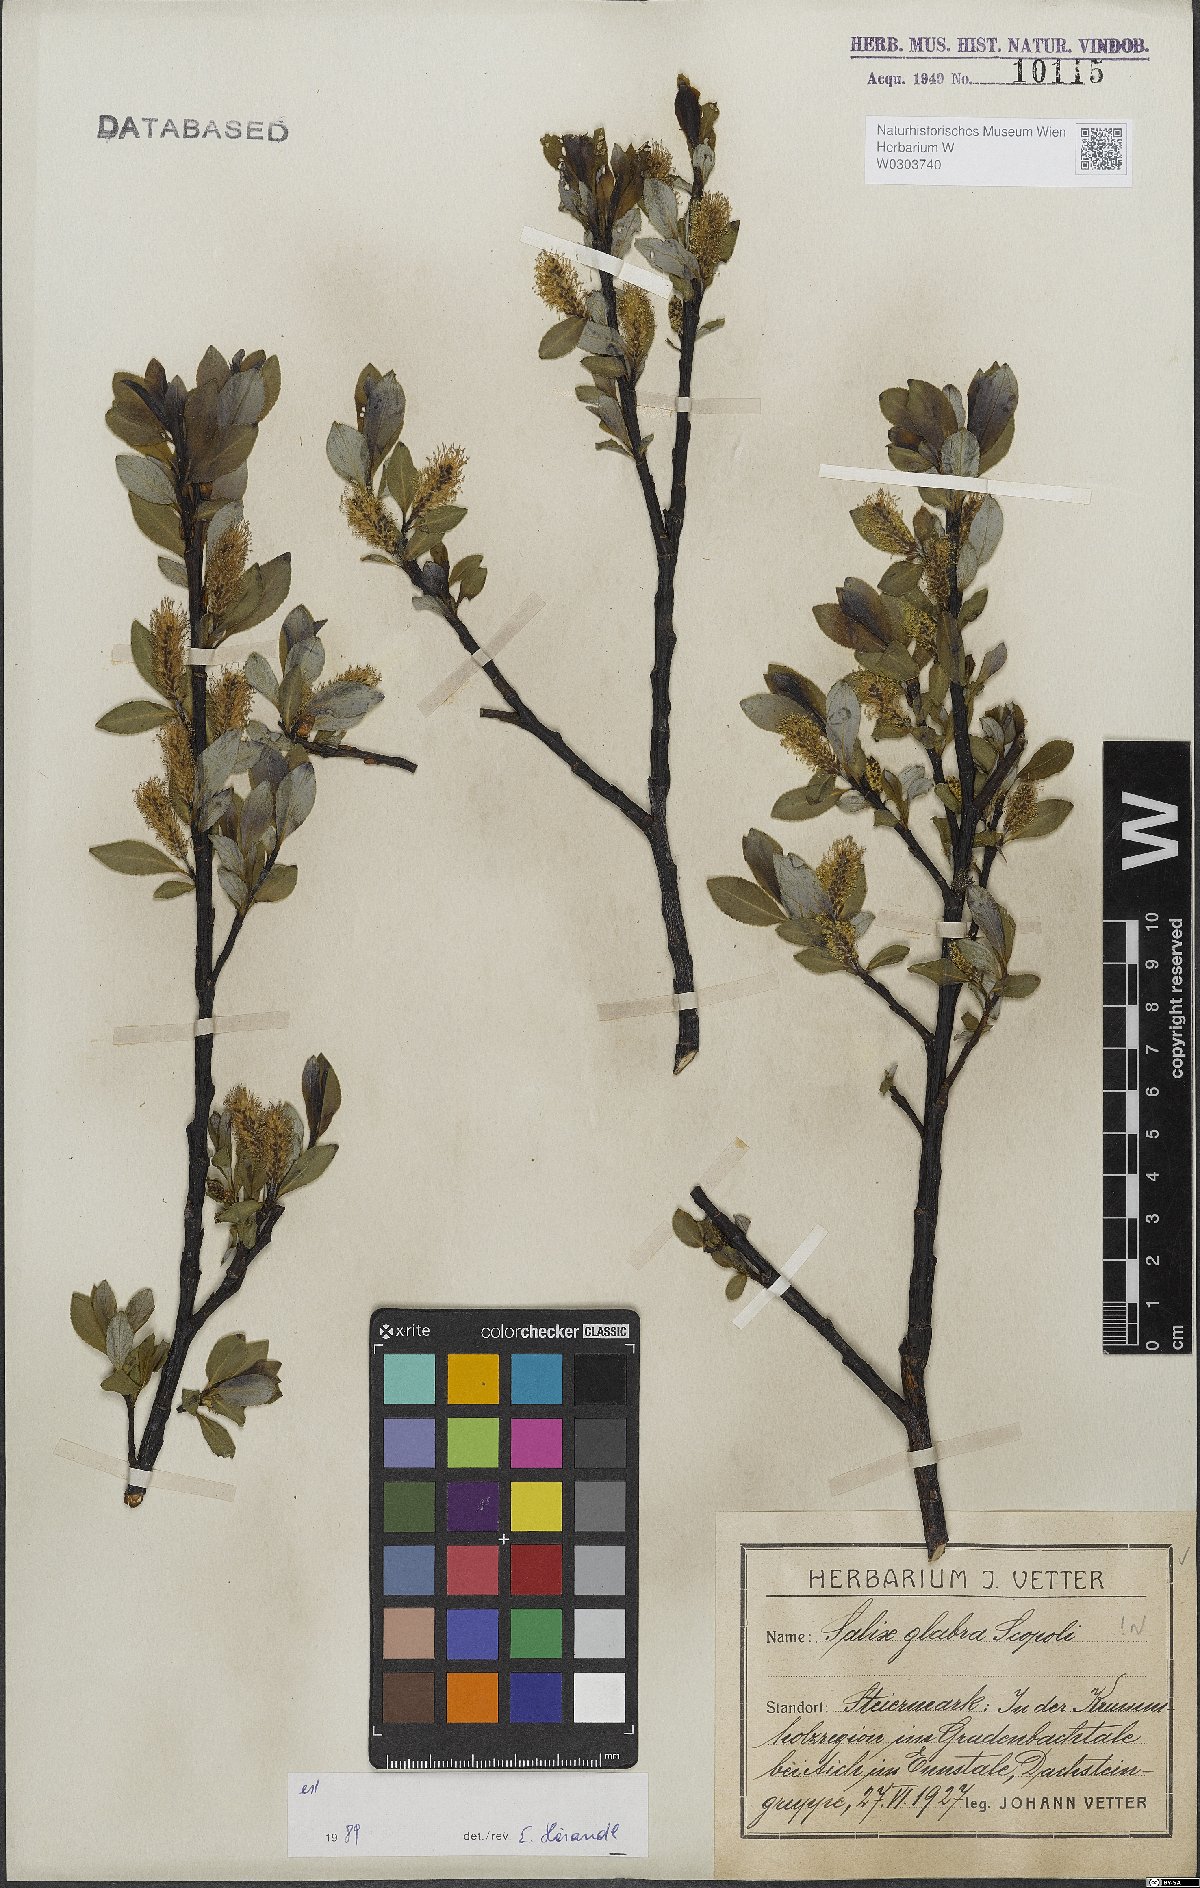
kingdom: Plantae
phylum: Tracheophyta
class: Magnoliopsida
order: Malpighiales
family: Salicaceae
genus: Salix
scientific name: Salix glabra
